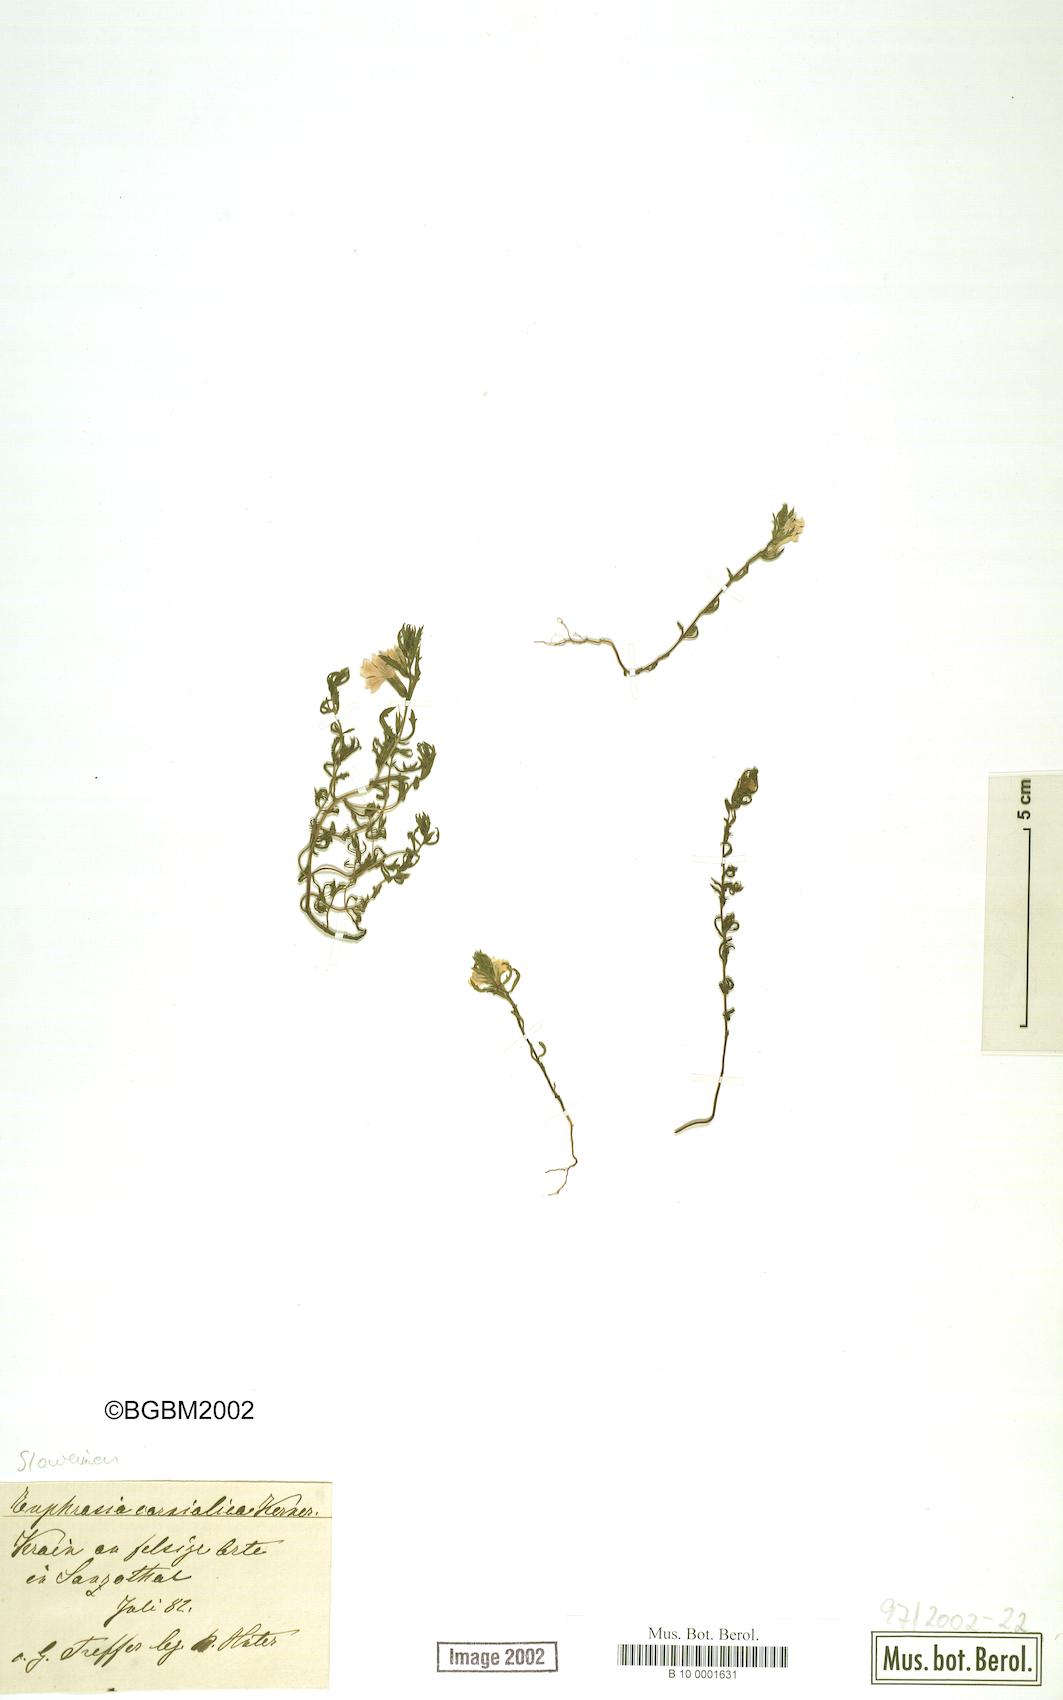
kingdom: Plantae
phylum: Tracheophyta
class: Magnoliopsida
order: Lamiales
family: Orobanchaceae
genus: Euphrasia
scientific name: Euphrasia officinalis
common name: Eyebright
